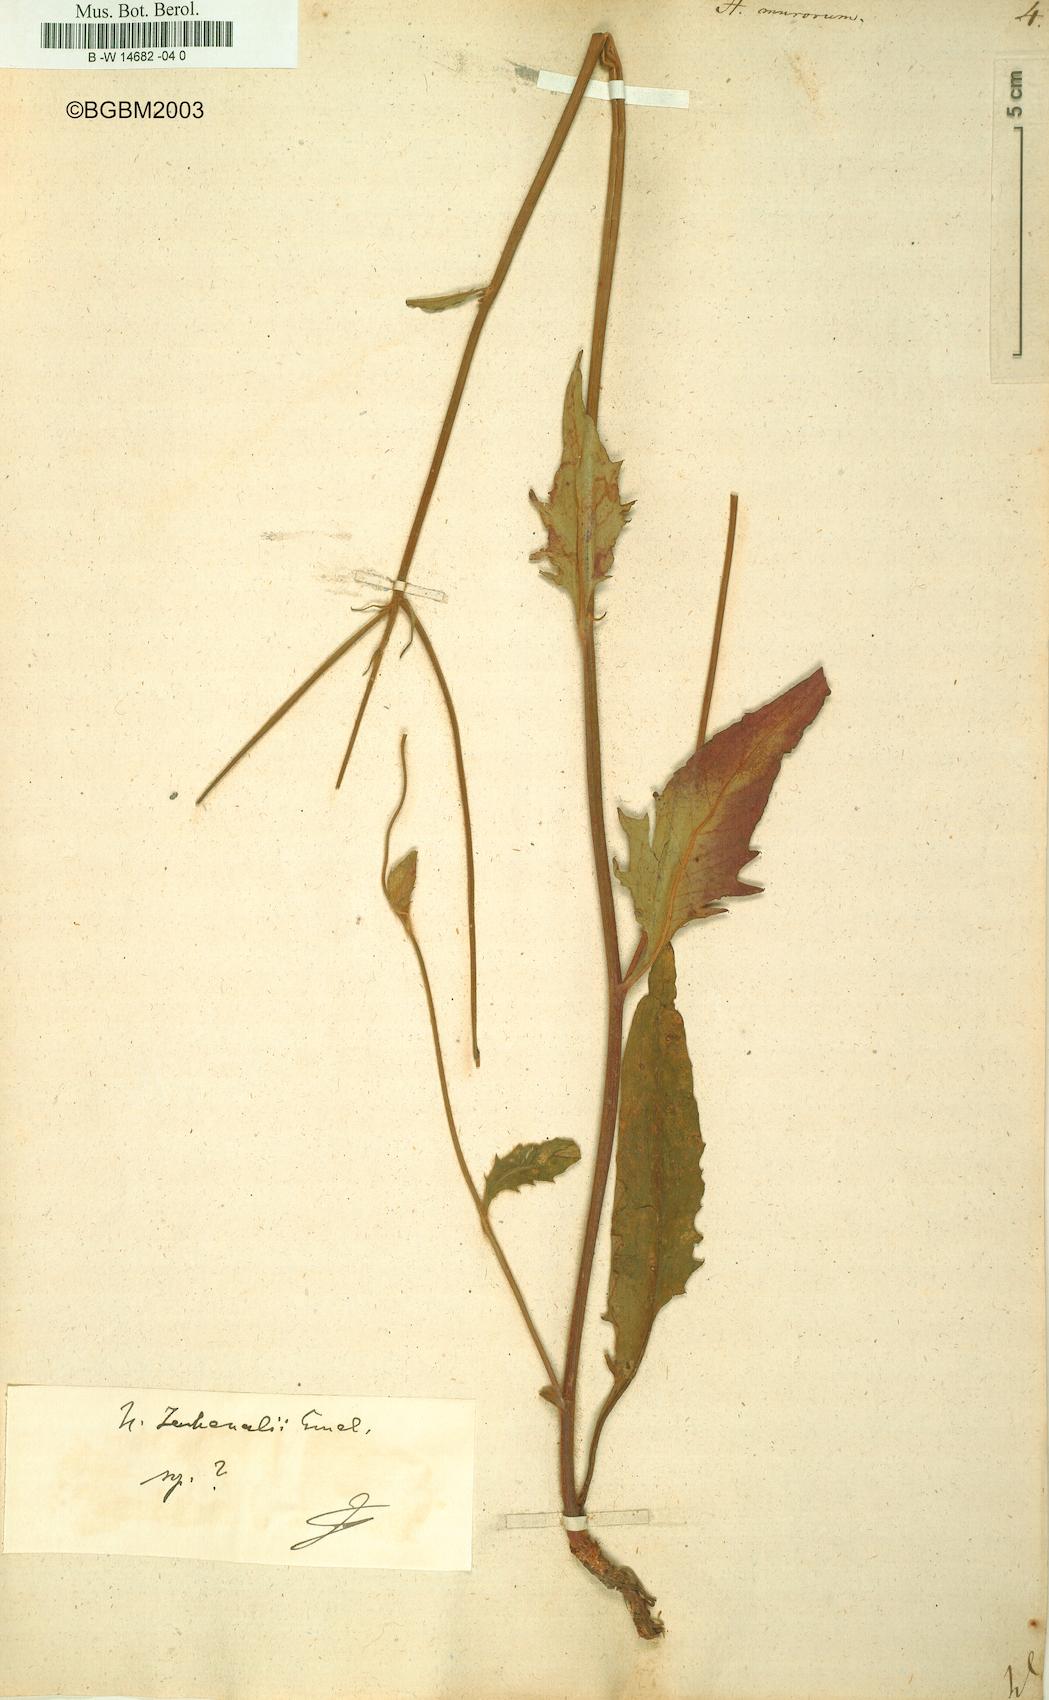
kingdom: Plantae
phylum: Tracheophyta
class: Magnoliopsida
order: Asterales
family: Asteraceae
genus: Hieracium
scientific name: Hieracium murorum
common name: Wall hawkweed
